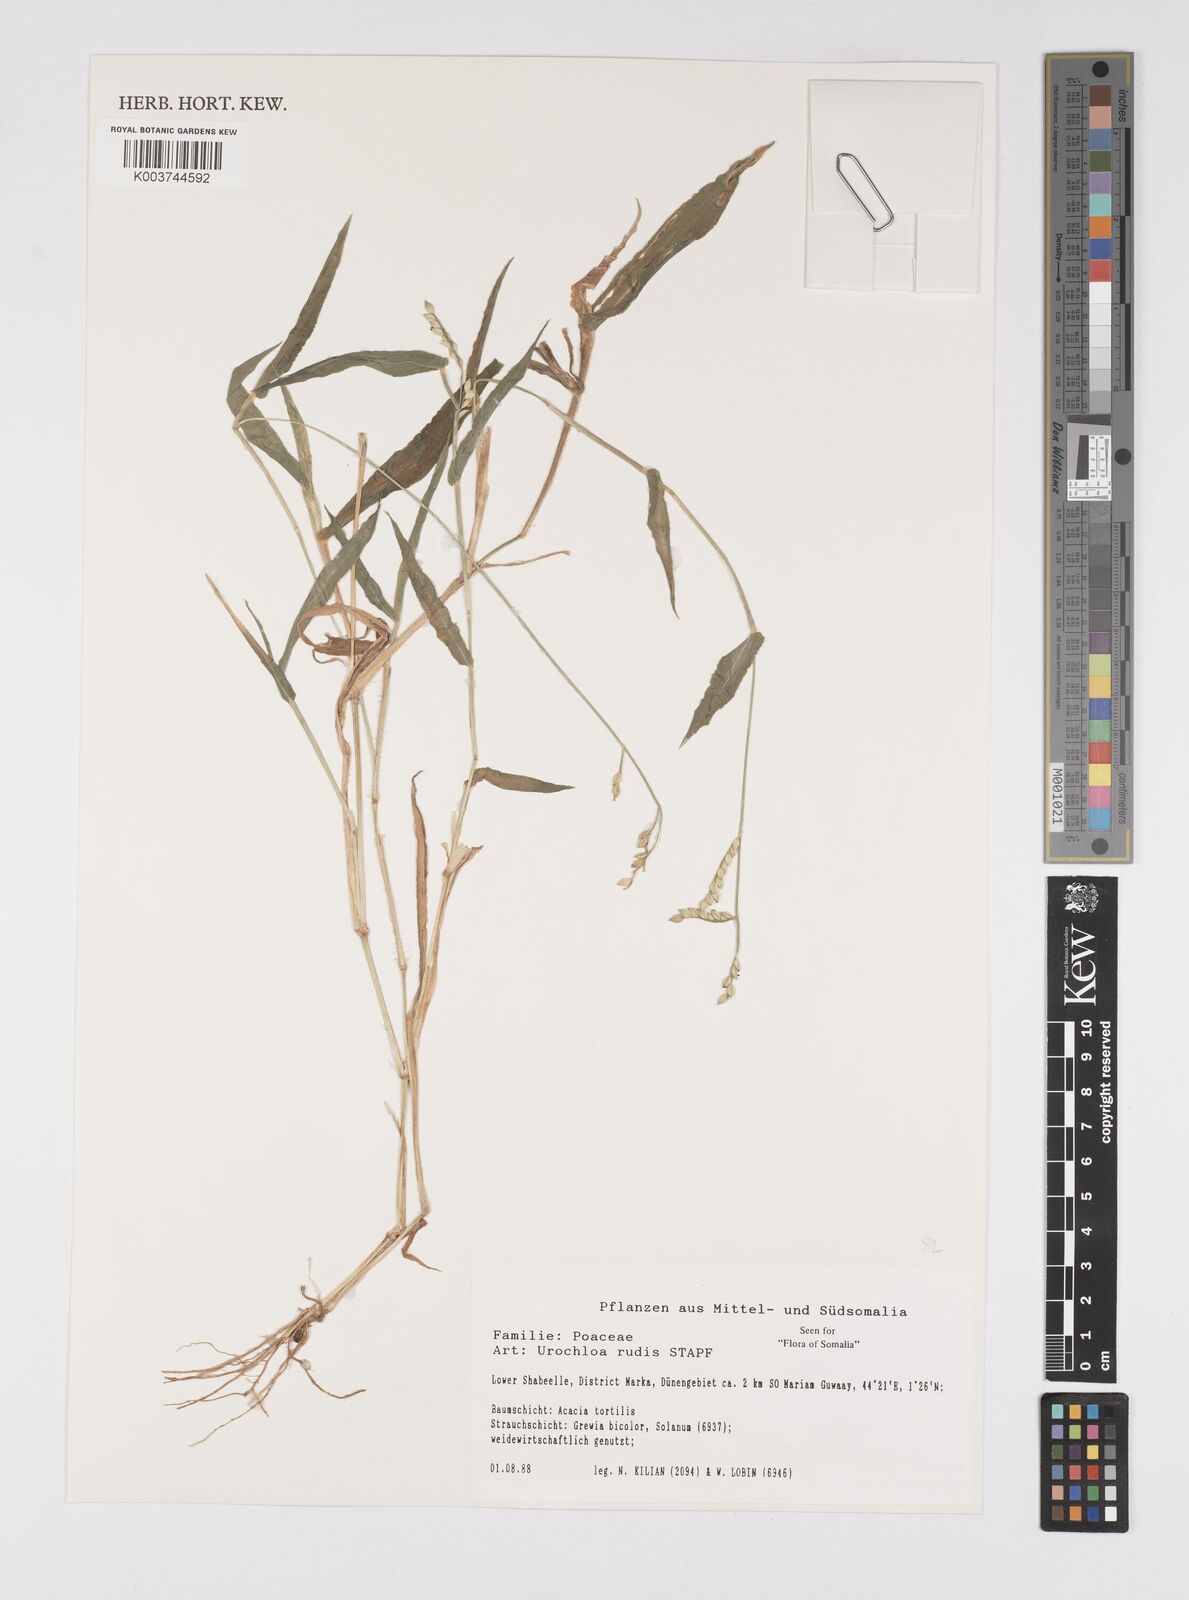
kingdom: Plantae
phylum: Tracheophyta
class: Liliopsida
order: Poales
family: Poaceae
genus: Urochloa
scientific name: Urochloa rudis
